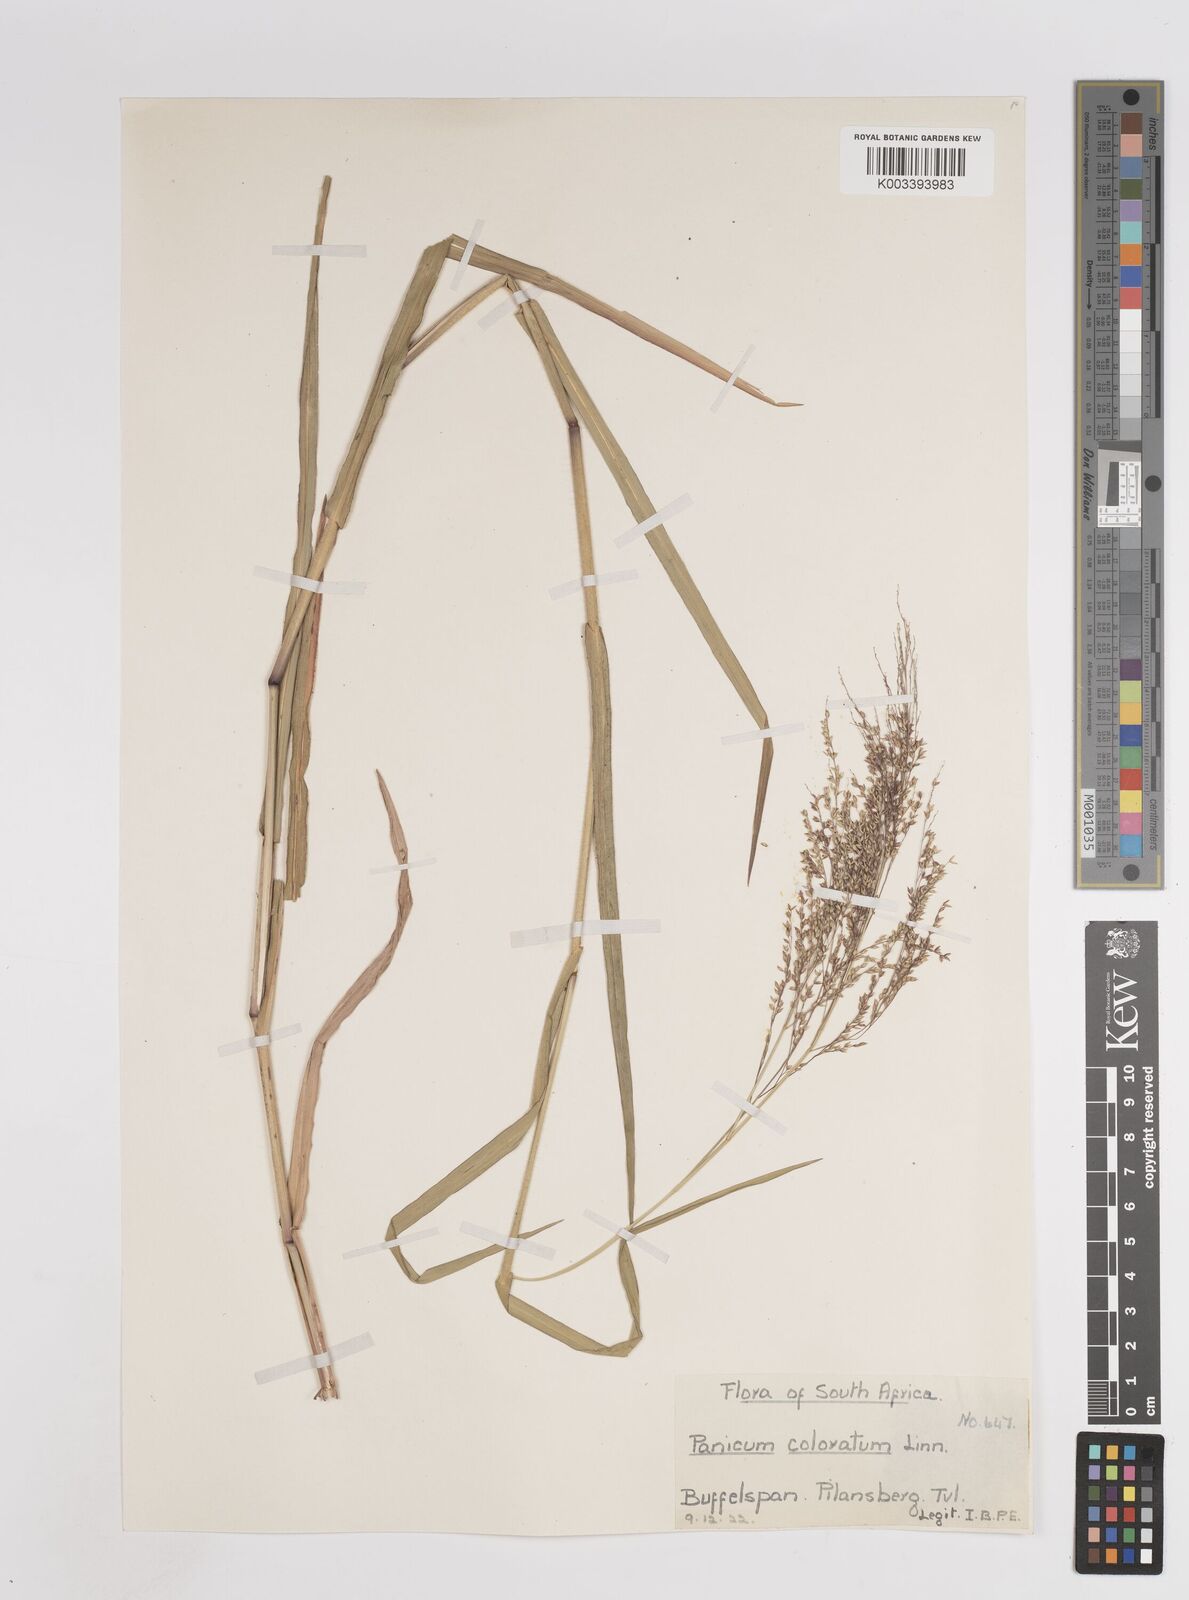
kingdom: Plantae
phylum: Tracheophyta
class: Liliopsida
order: Poales
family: Poaceae
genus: Panicum
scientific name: Panicum coloratum
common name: Kleingrass
